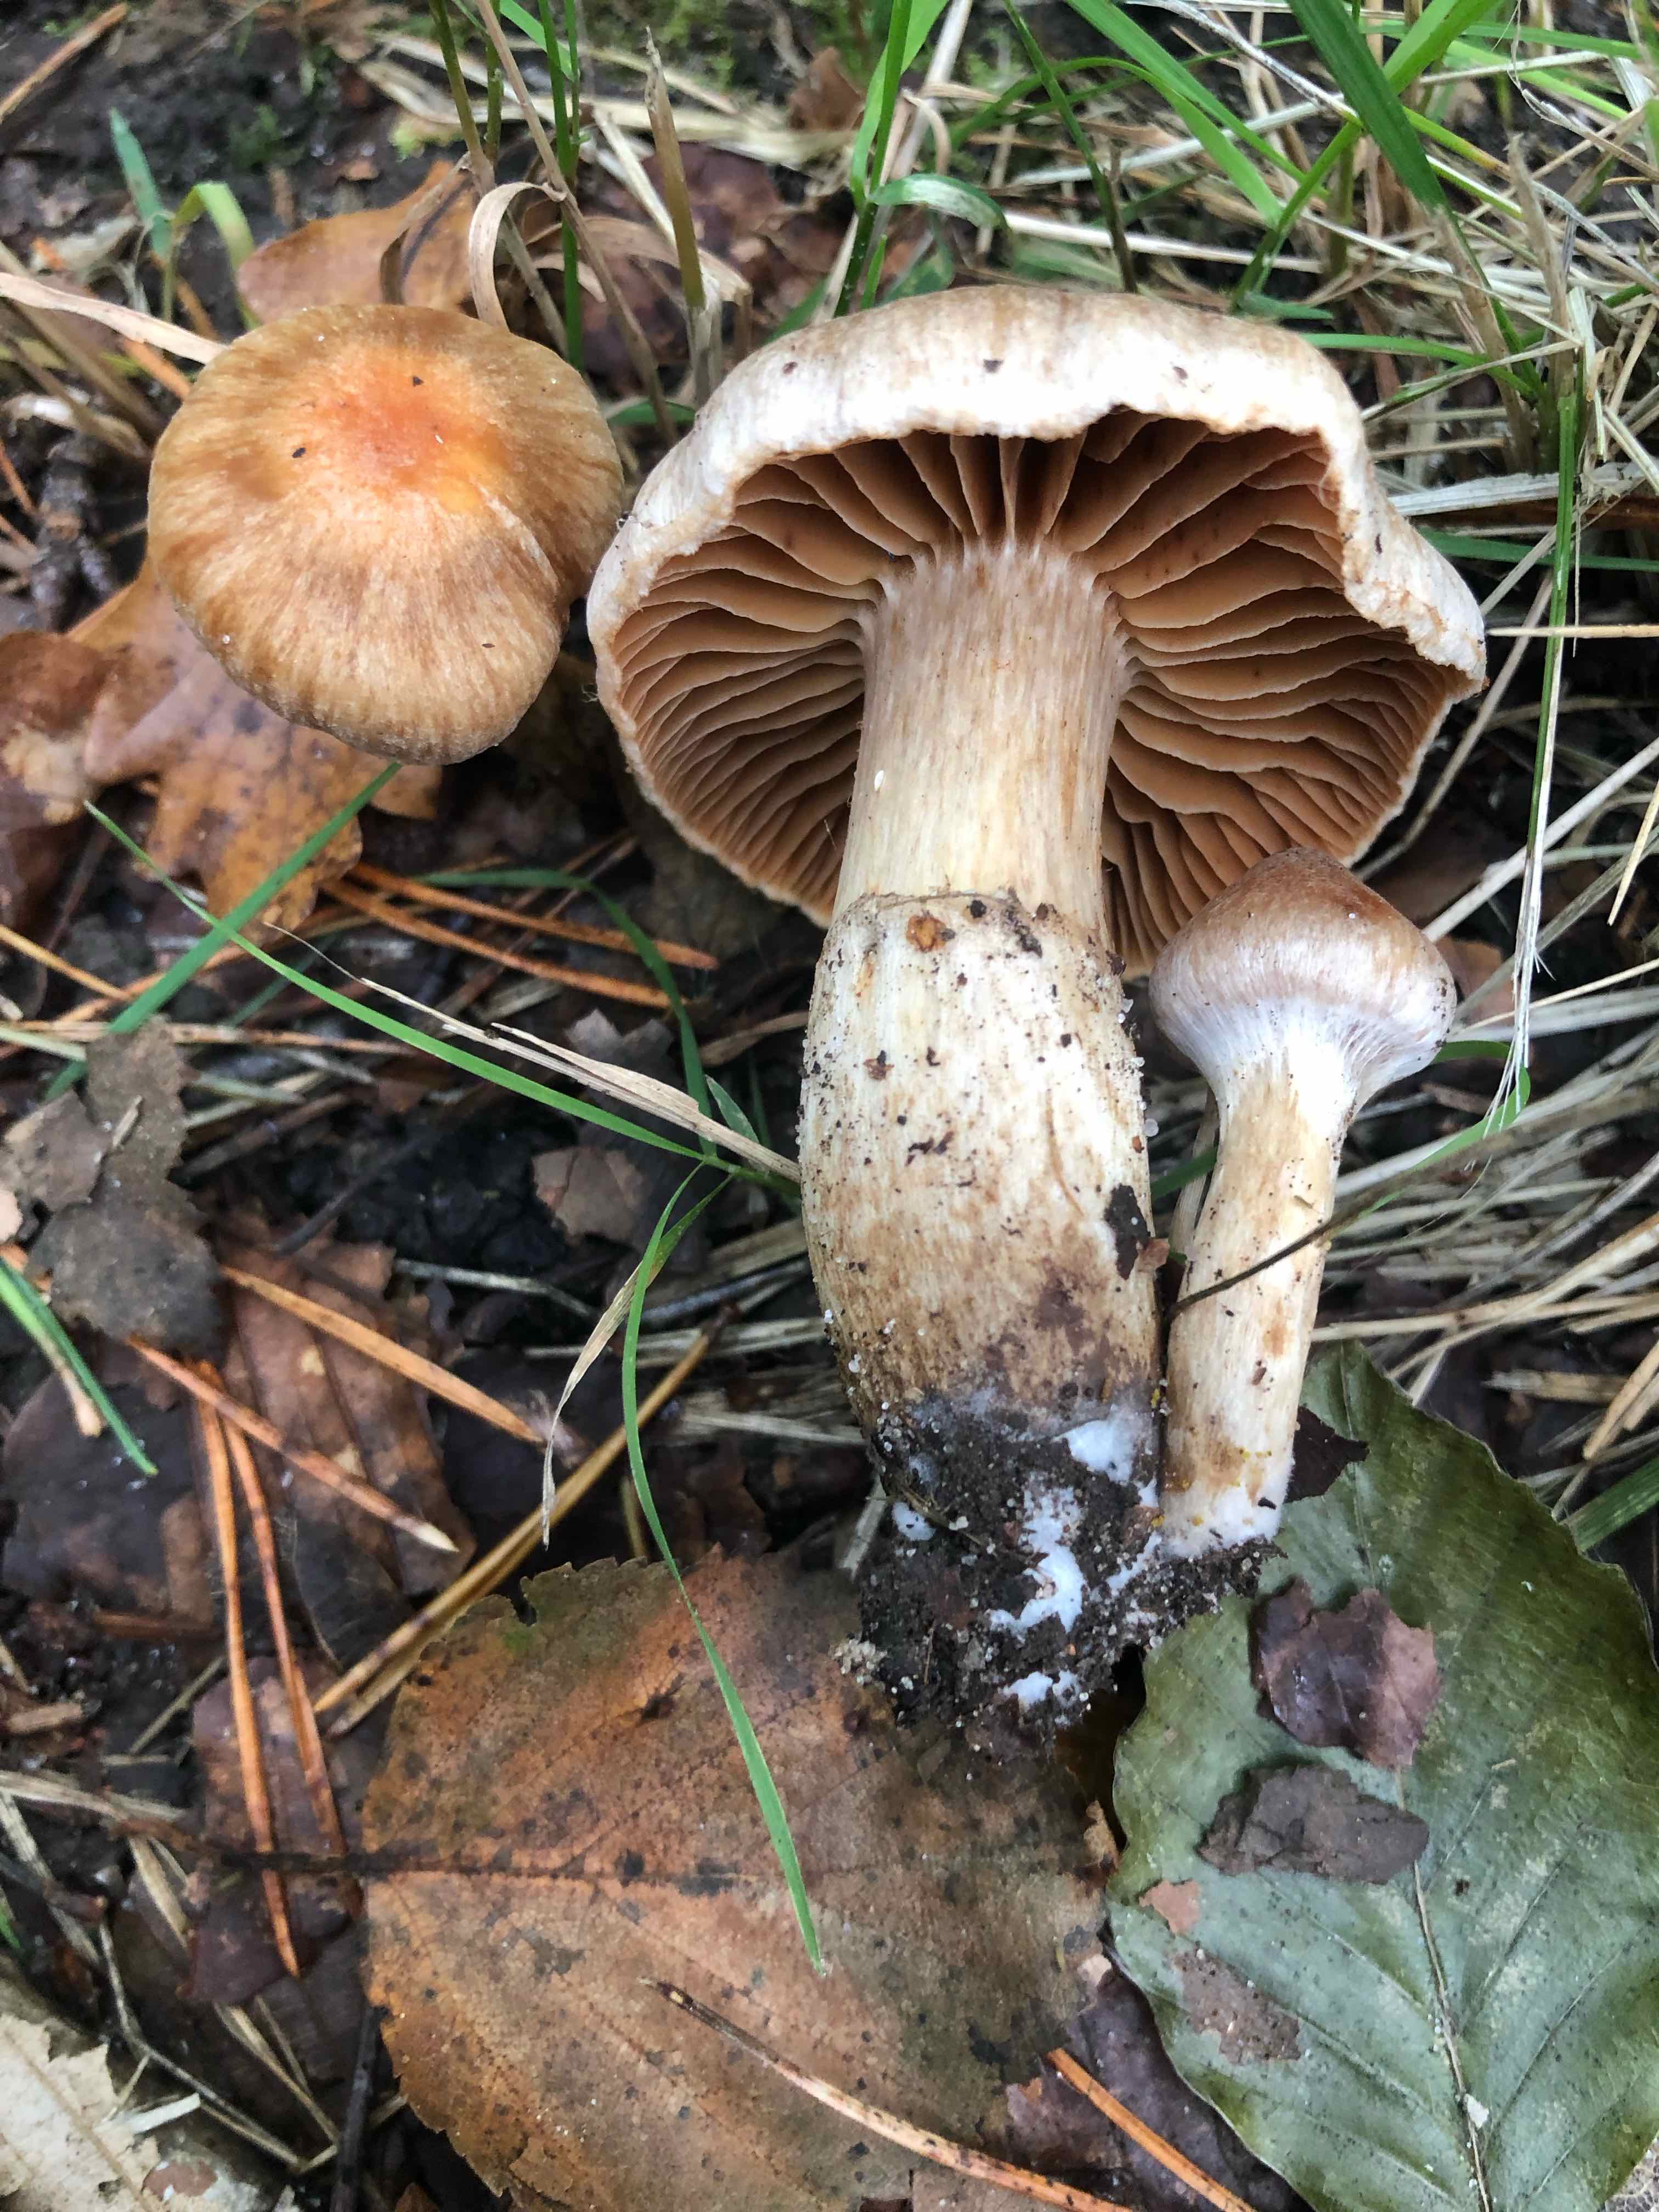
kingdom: Fungi
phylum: Basidiomycota
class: Agaricomycetes
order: Agaricales
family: Cortinariaceae
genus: Cortinarius
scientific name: Cortinarius hinnuleus
